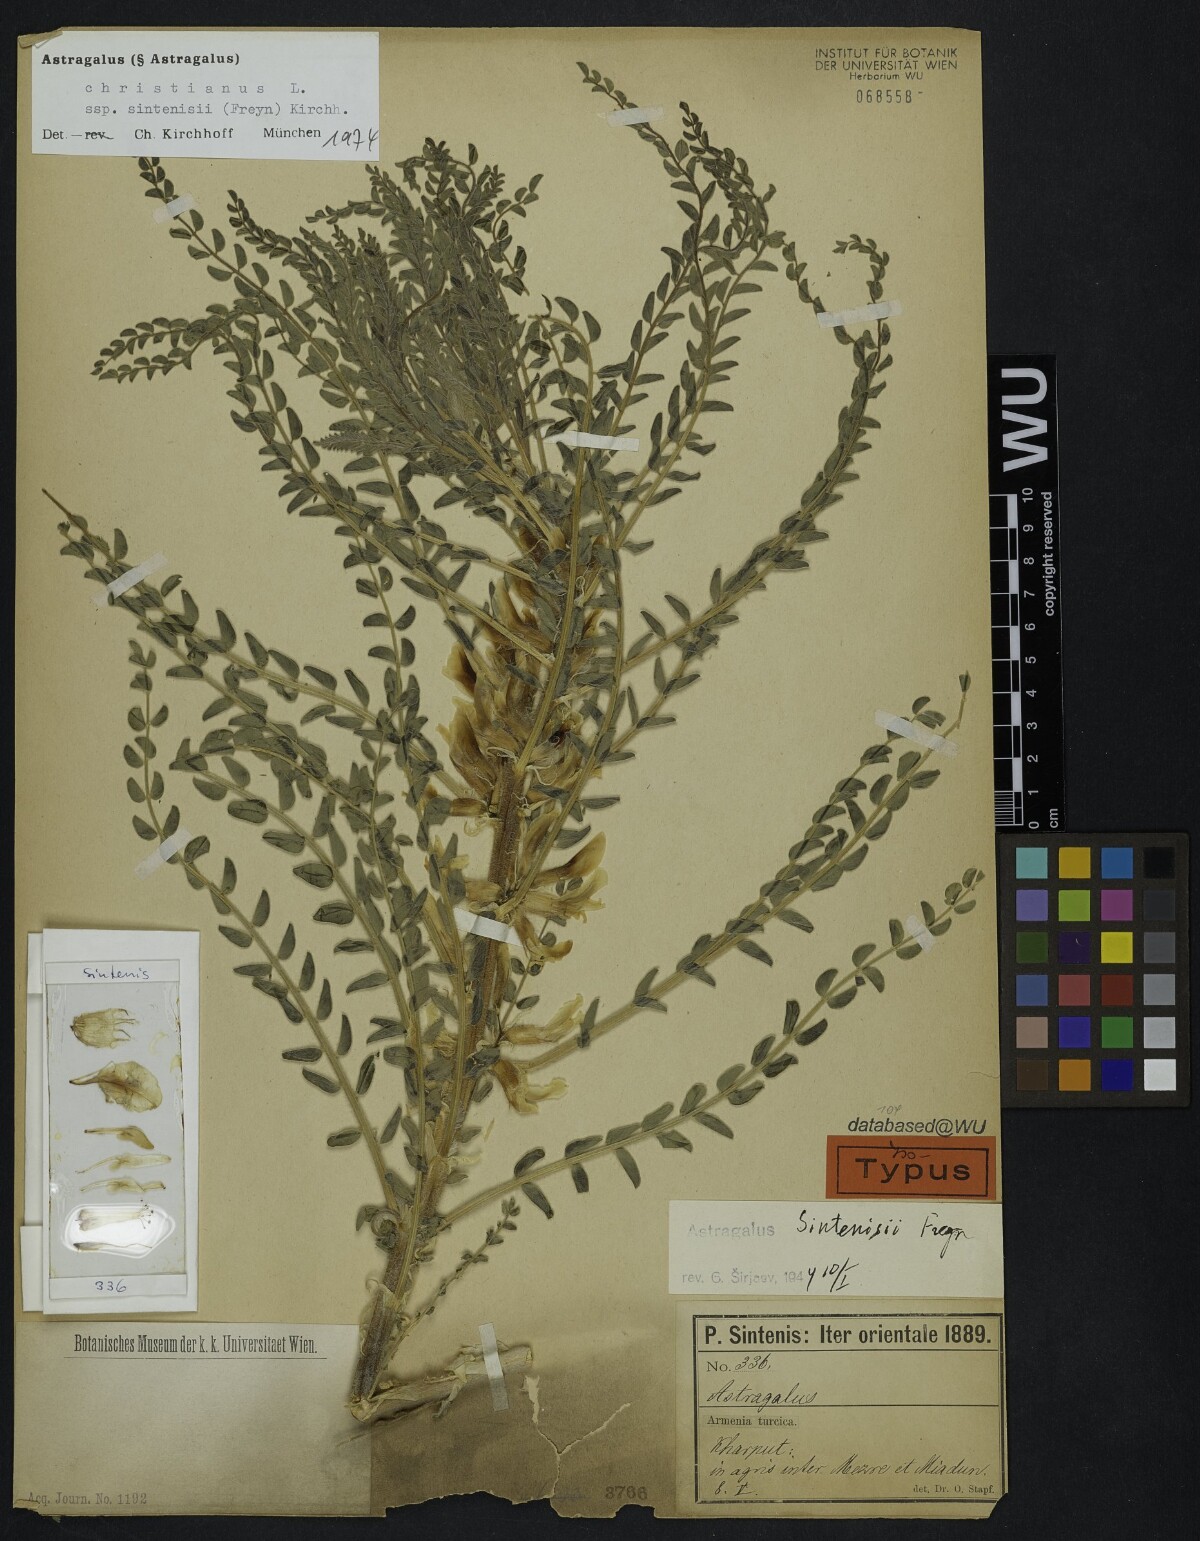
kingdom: Plantae
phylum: Tracheophyta
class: Magnoliopsida
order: Fabales
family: Fabaceae
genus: Astragalus
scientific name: Astragalus christianus
